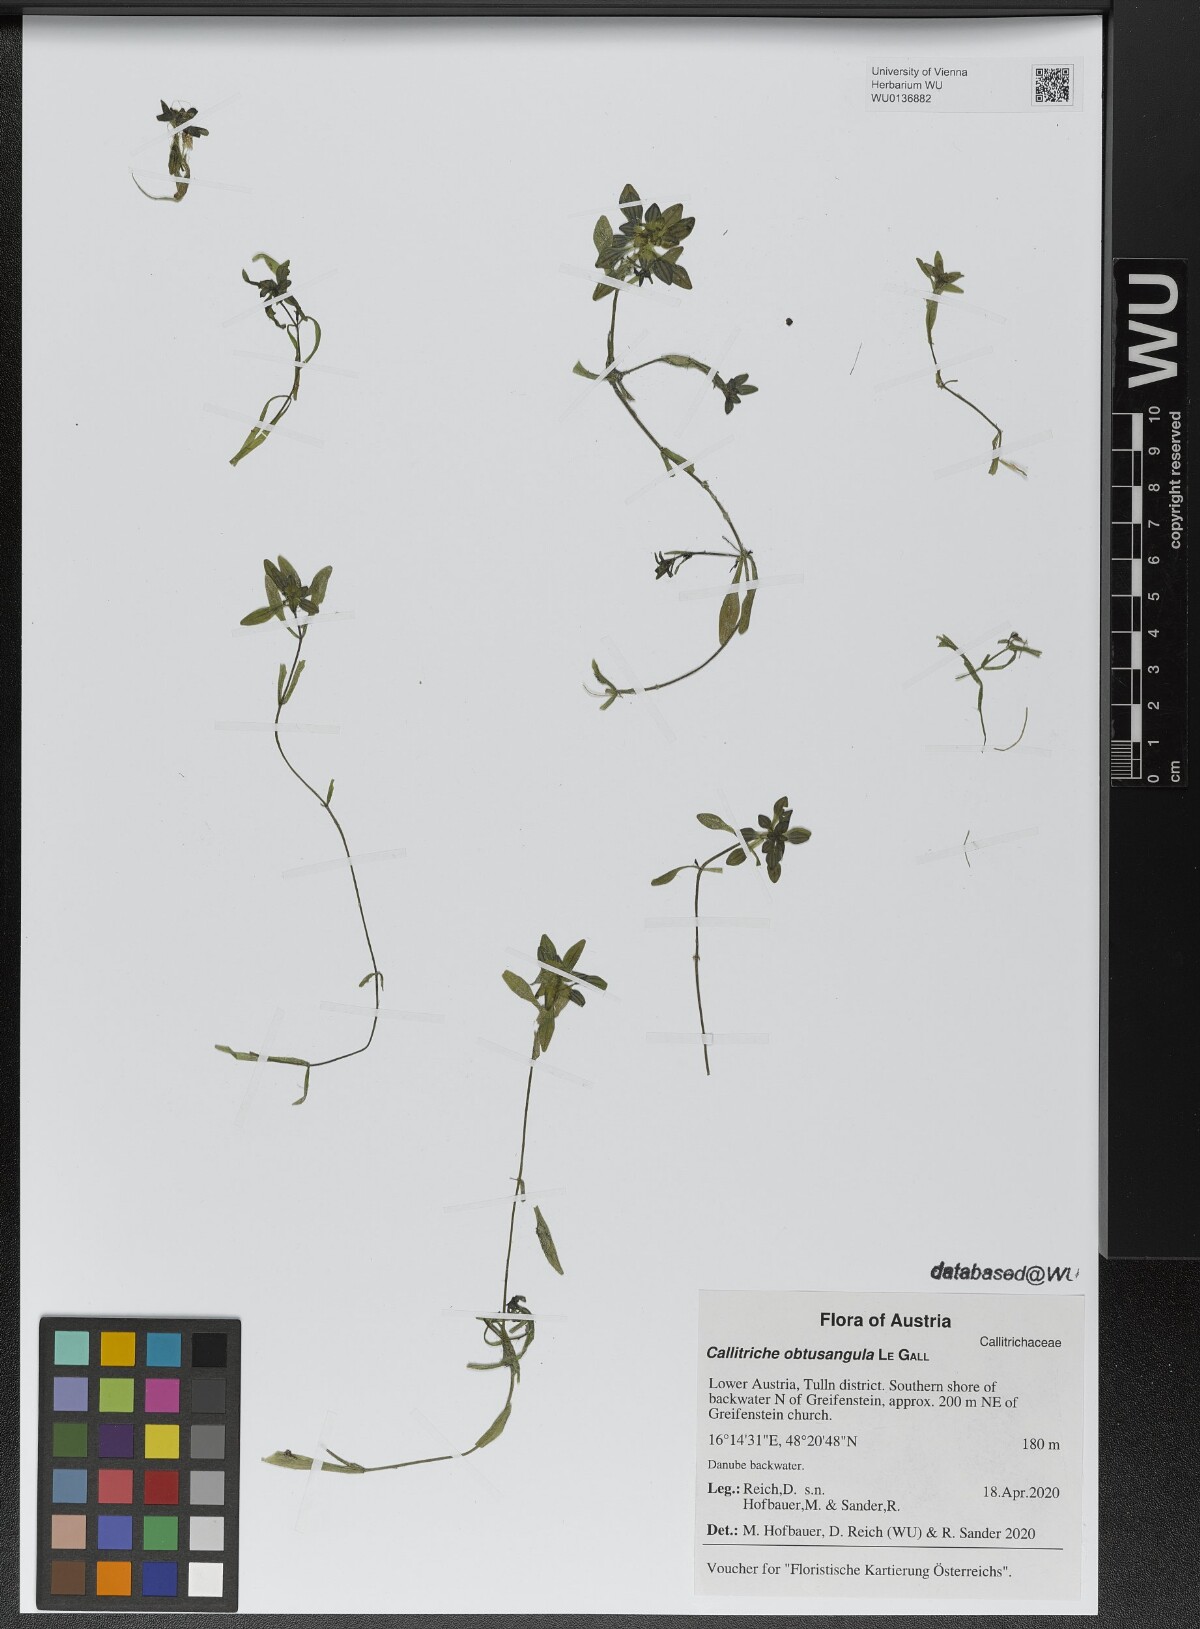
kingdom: Plantae
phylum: Tracheophyta
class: Magnoliopsida
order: Lamiales
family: Plantaginaceae
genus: Callitriche
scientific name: Callitriche obtusangula
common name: Blunt-fruited water-starwort
